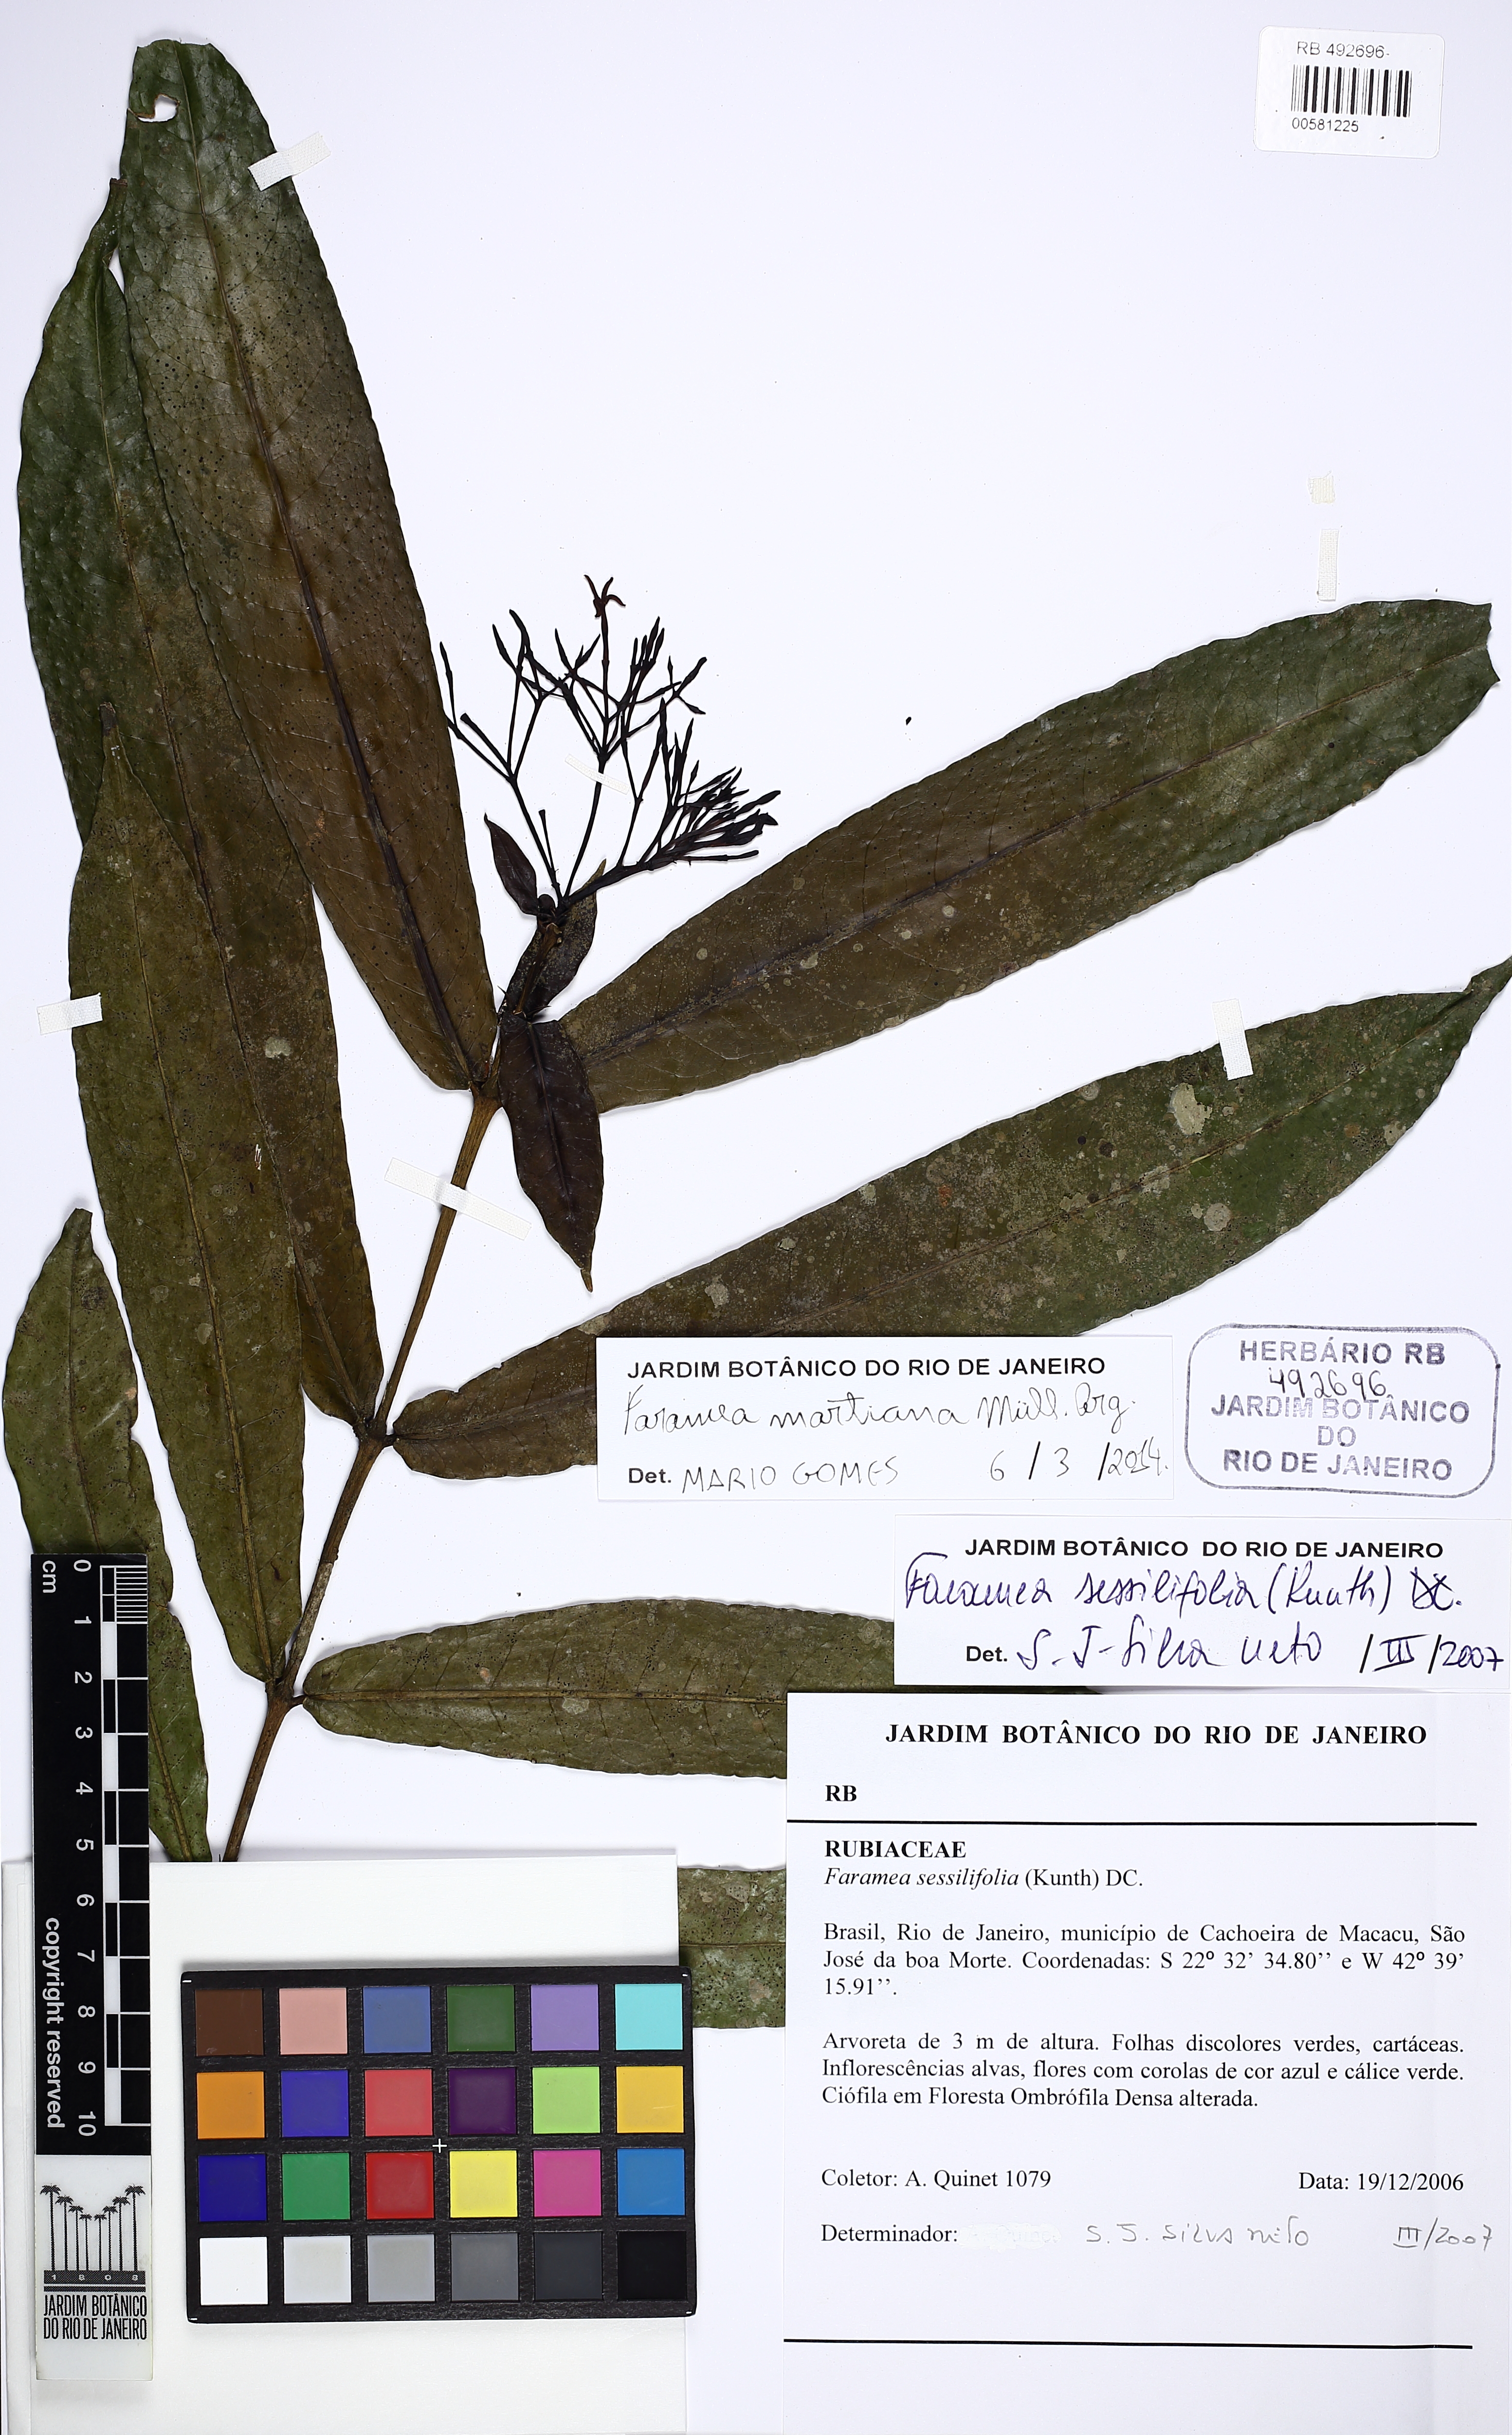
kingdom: Plantae
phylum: Tracheophyta
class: Magnoliopsida
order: Gentianales
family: Rubiaceae
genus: Faramea
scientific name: Faramea stipulacea
